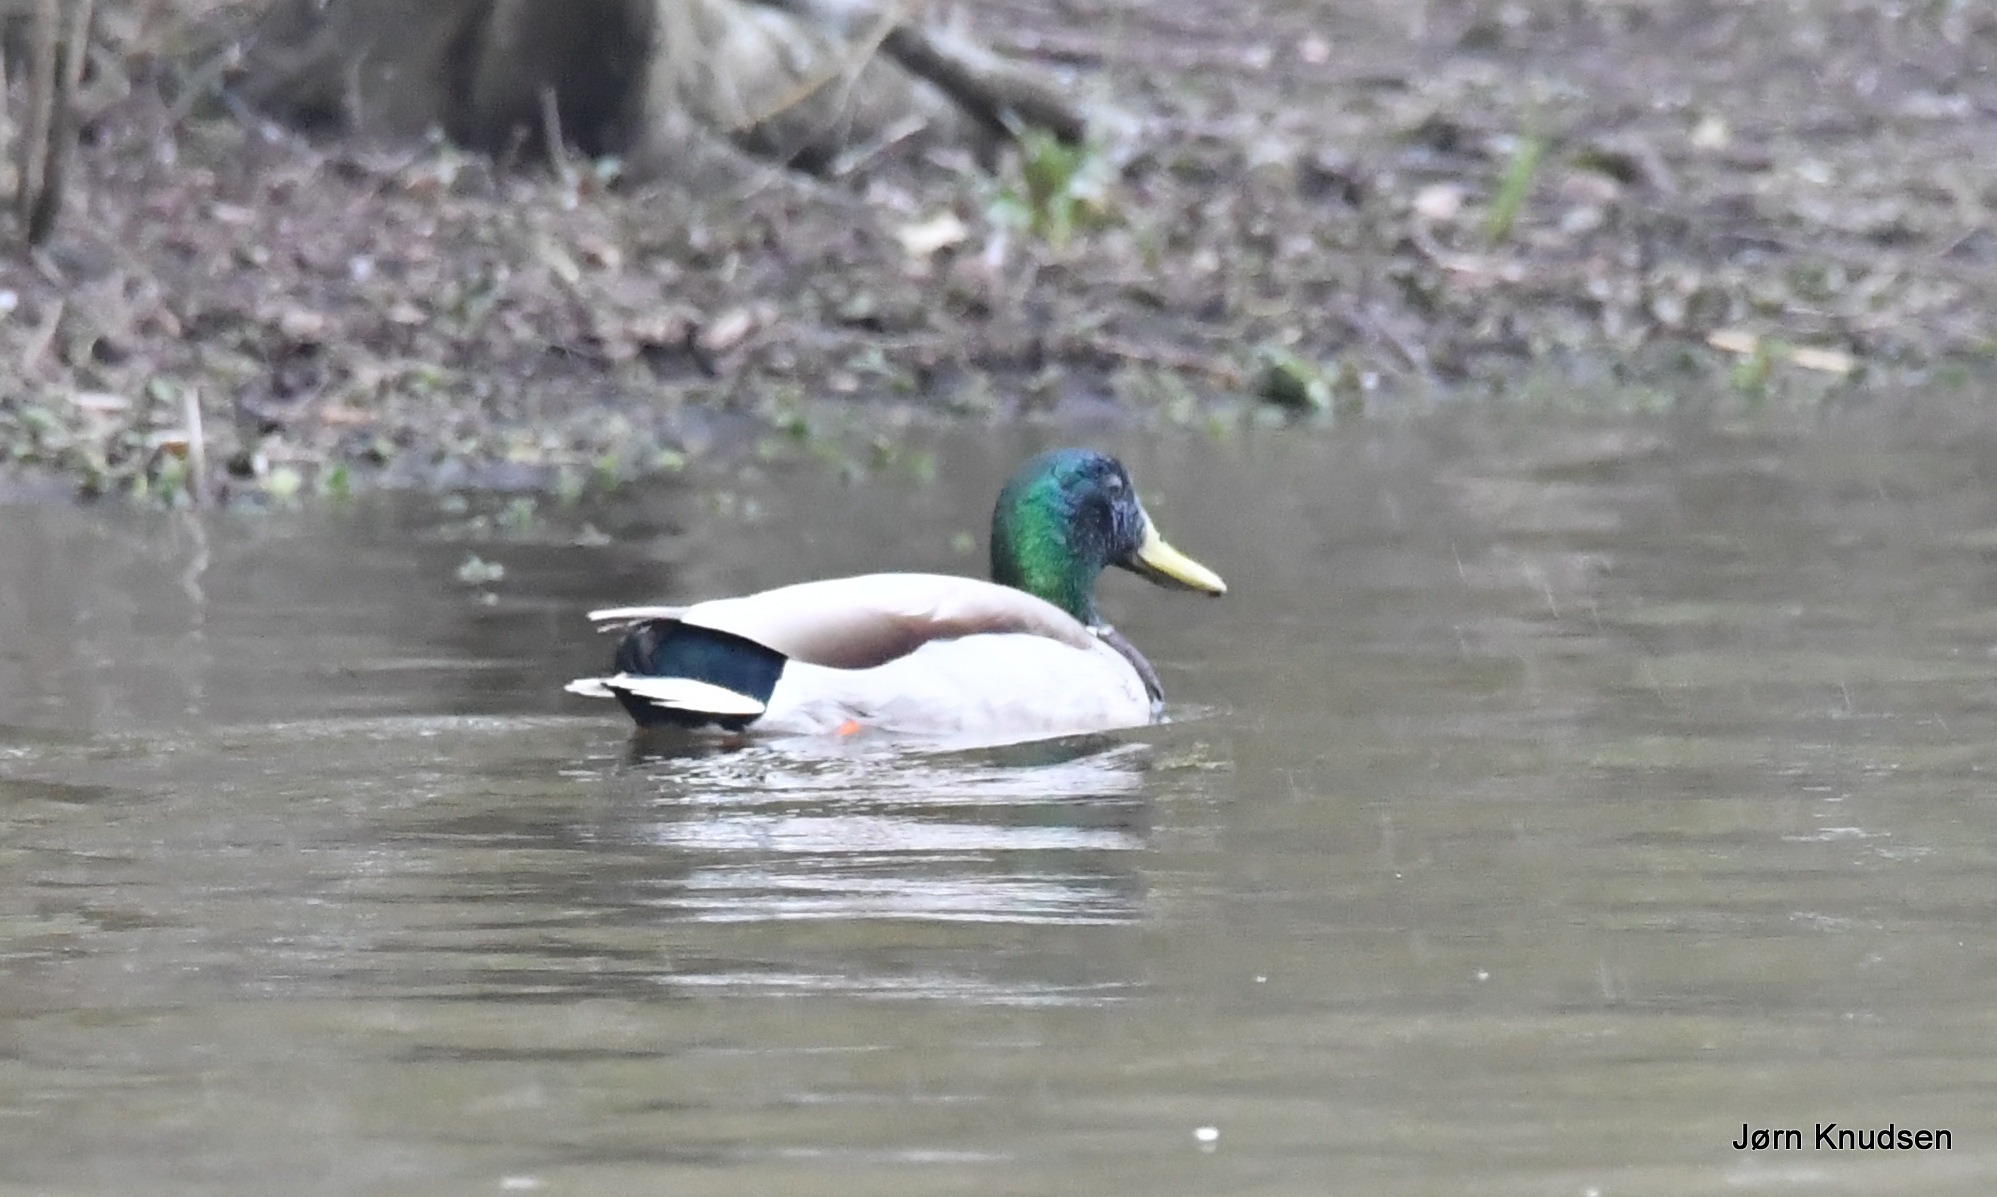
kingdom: Animalia
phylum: Chordata
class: Aves
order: Anseriformes
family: Anatidae
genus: Anas
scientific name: Anas platyrhynchos
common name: Gråand
